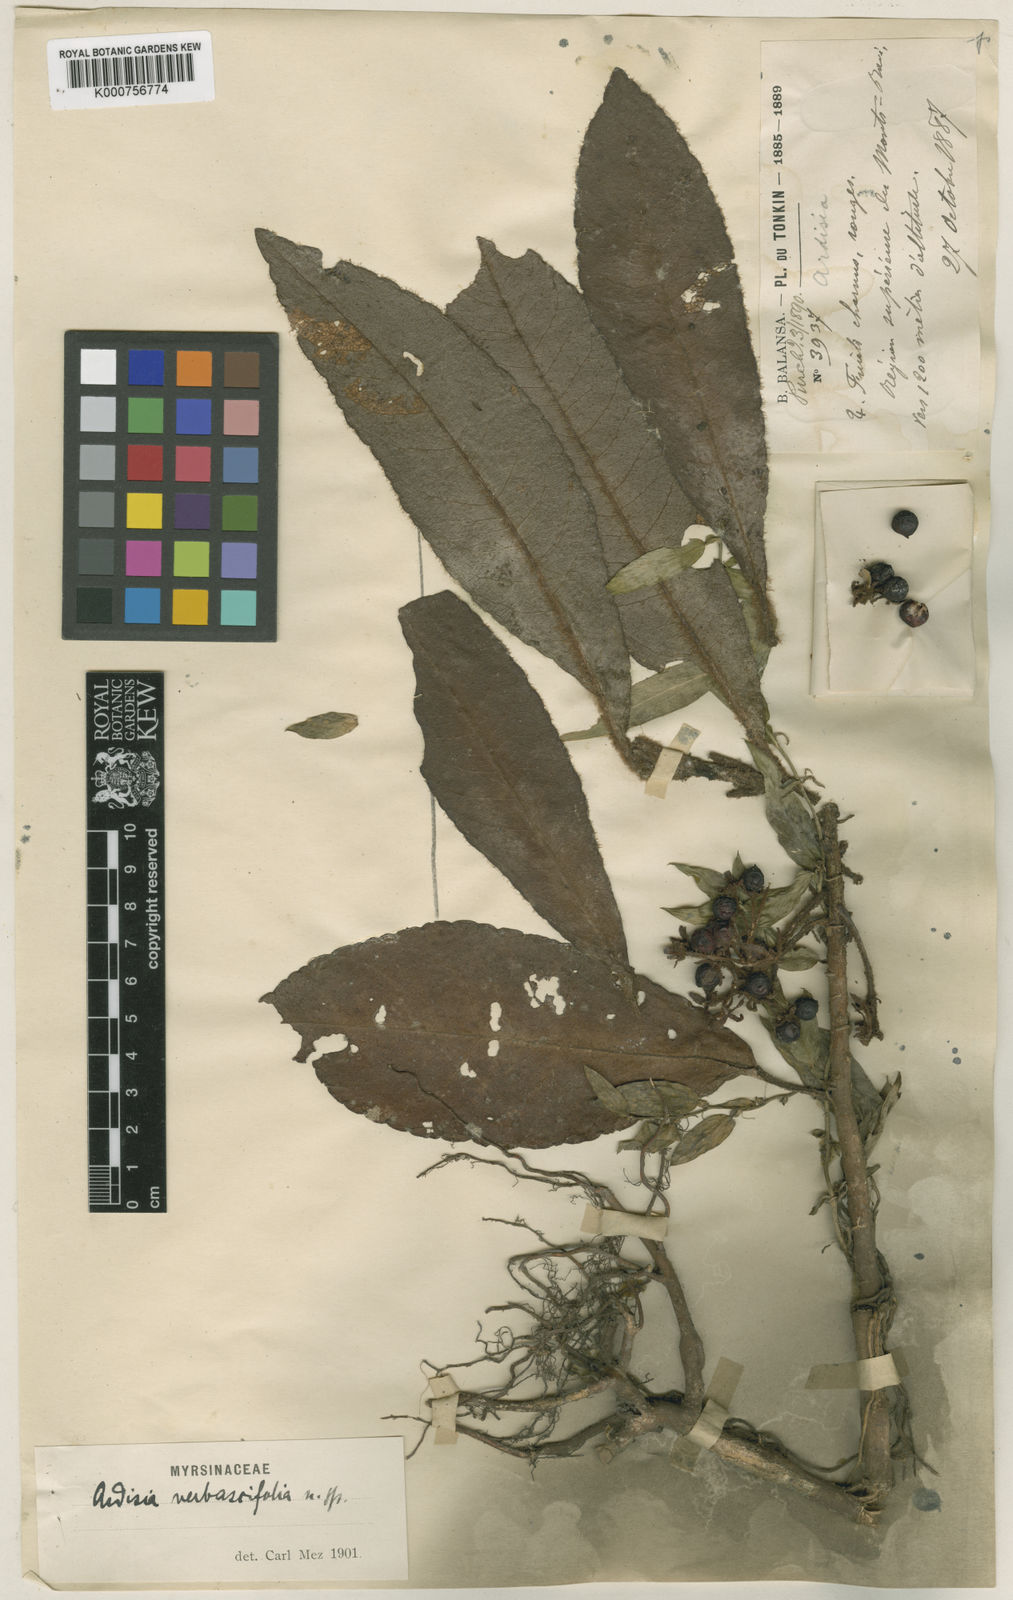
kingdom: Plantae
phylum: Tracheophyta
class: Magnoliopsida
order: Ericales
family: Primulaceae
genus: Ardisia
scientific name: Ardisia verbascifolia
